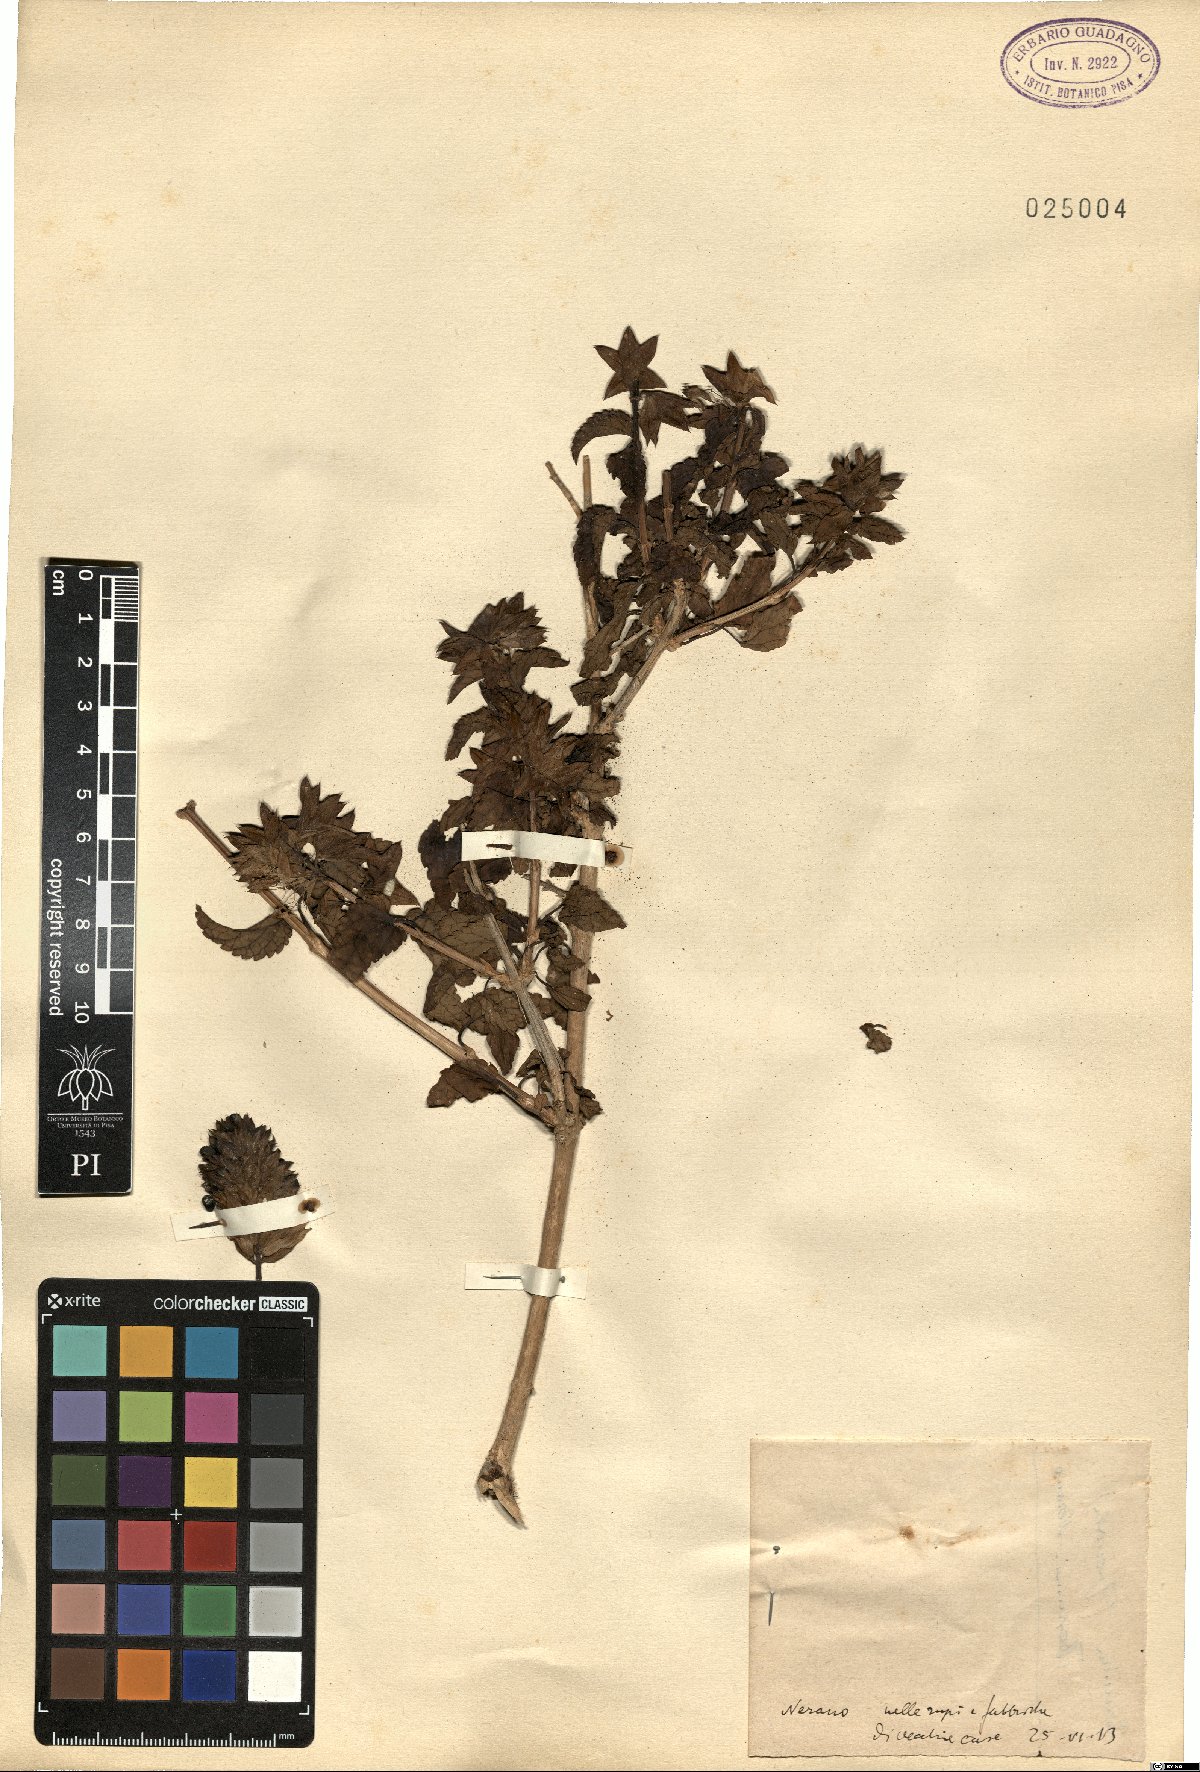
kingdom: Plantae
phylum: Tracheophyta
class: Magnoliopsida
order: Lamiales
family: Lamiaceae
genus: Prasium
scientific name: Prasium
